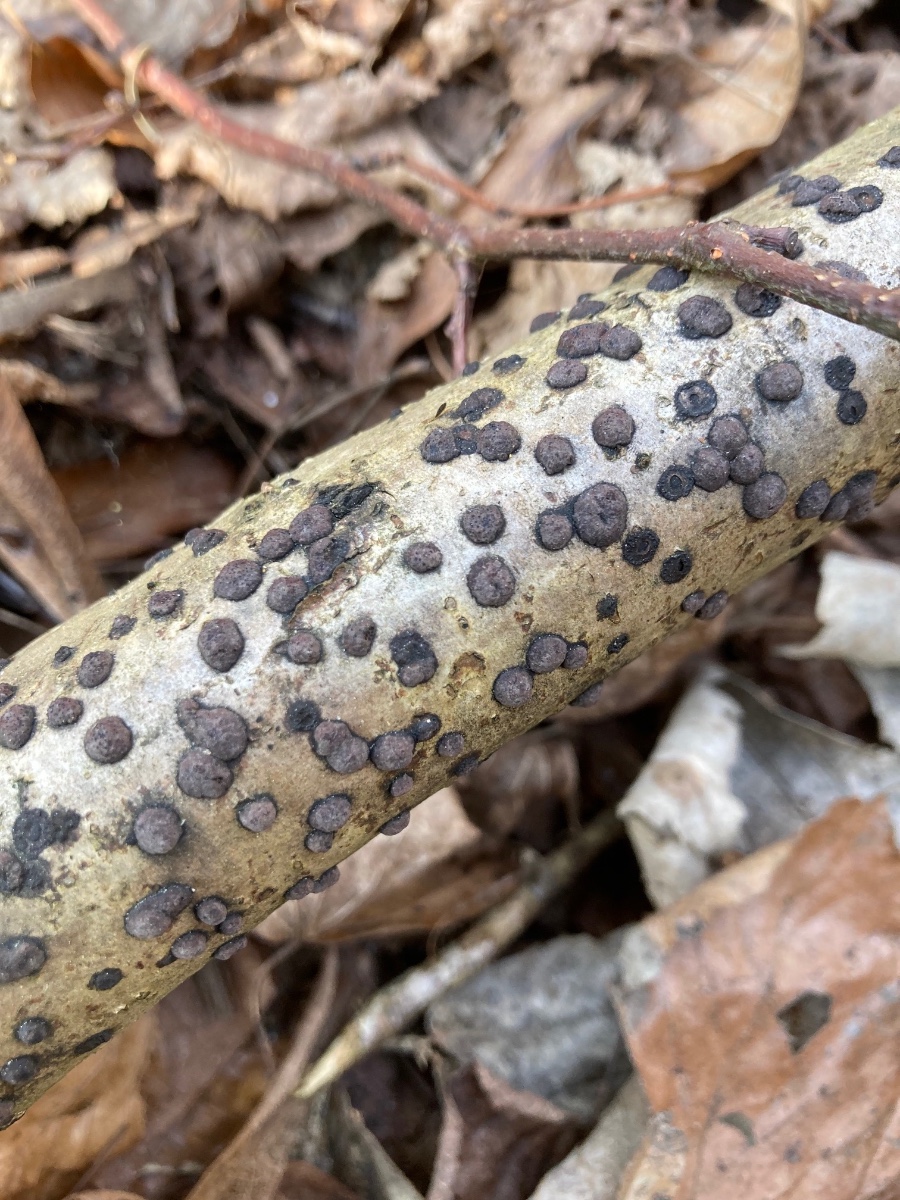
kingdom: Fungi
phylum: Ascomycota
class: Sordariomycetes
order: Xylariales
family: Hypoxylaceae
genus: Hypoxylon
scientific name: Hypoxylon fuscum
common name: kegleformet kulbær
